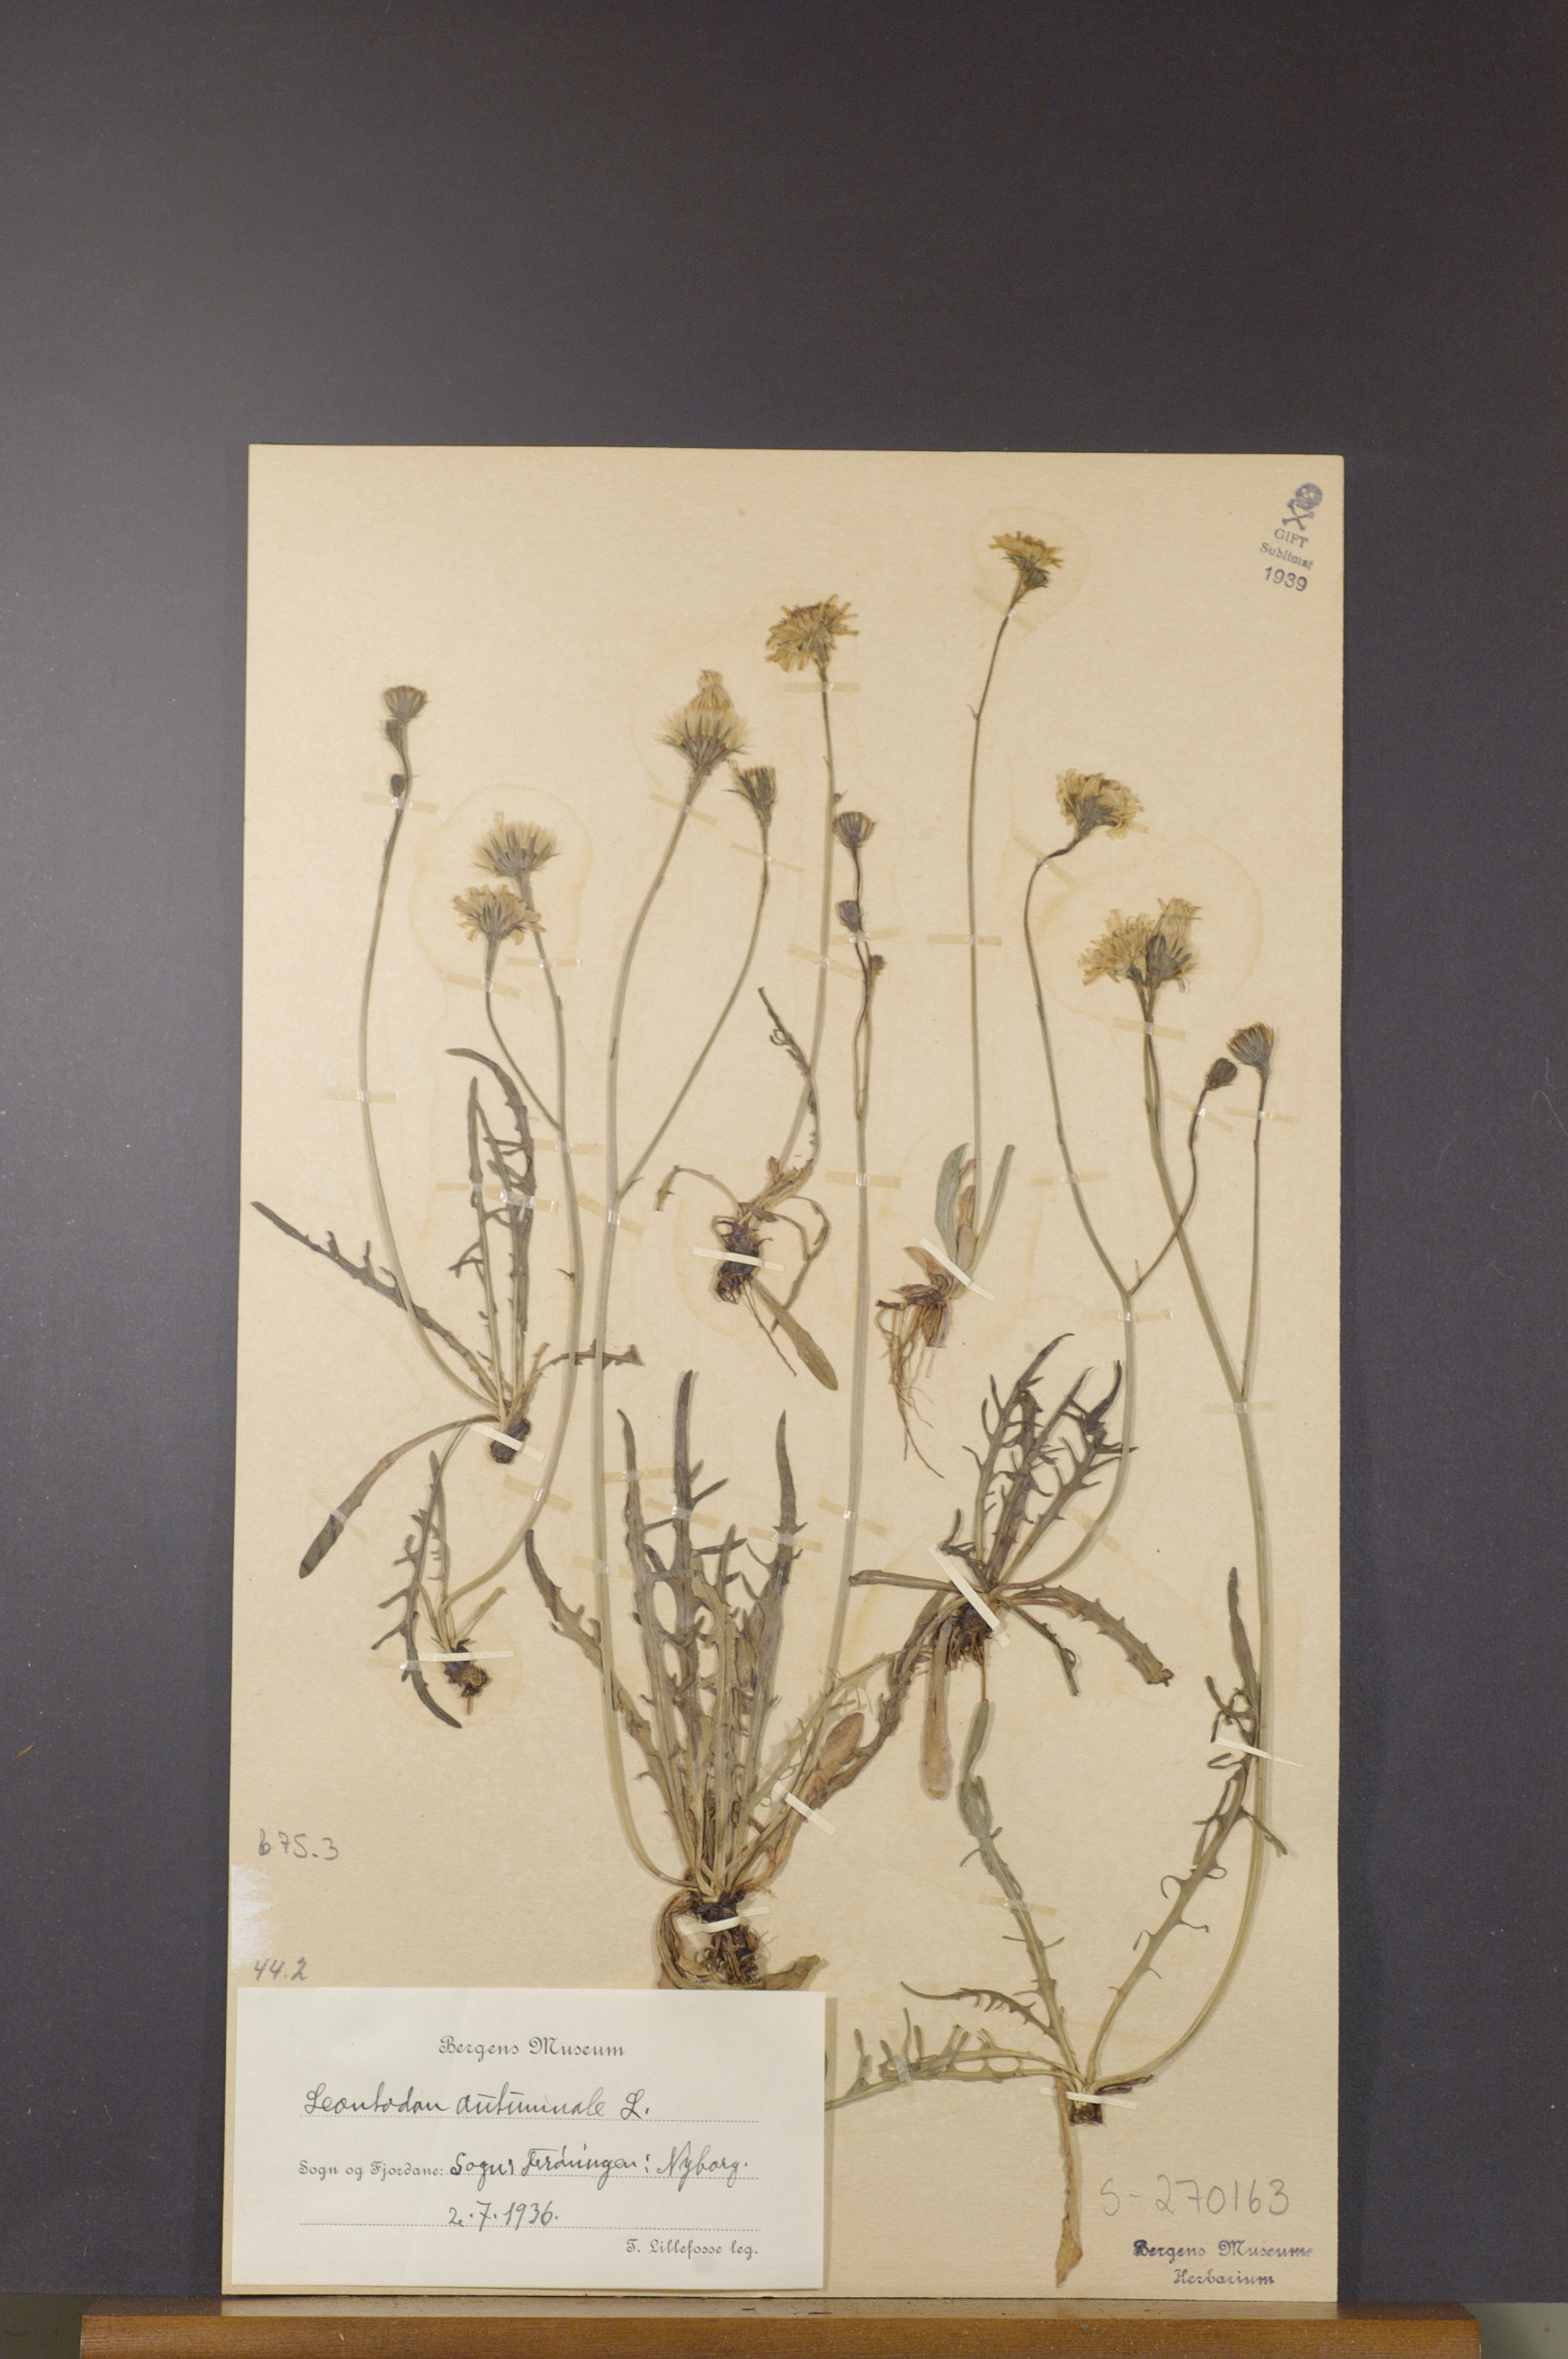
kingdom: Plantae
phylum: Tracheophyta
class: Magnoliopsida
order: Asterales
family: Asteraceae
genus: Scorzoneroides
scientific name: Scorzoneroides autumnalis
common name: Autumn hawkbit
